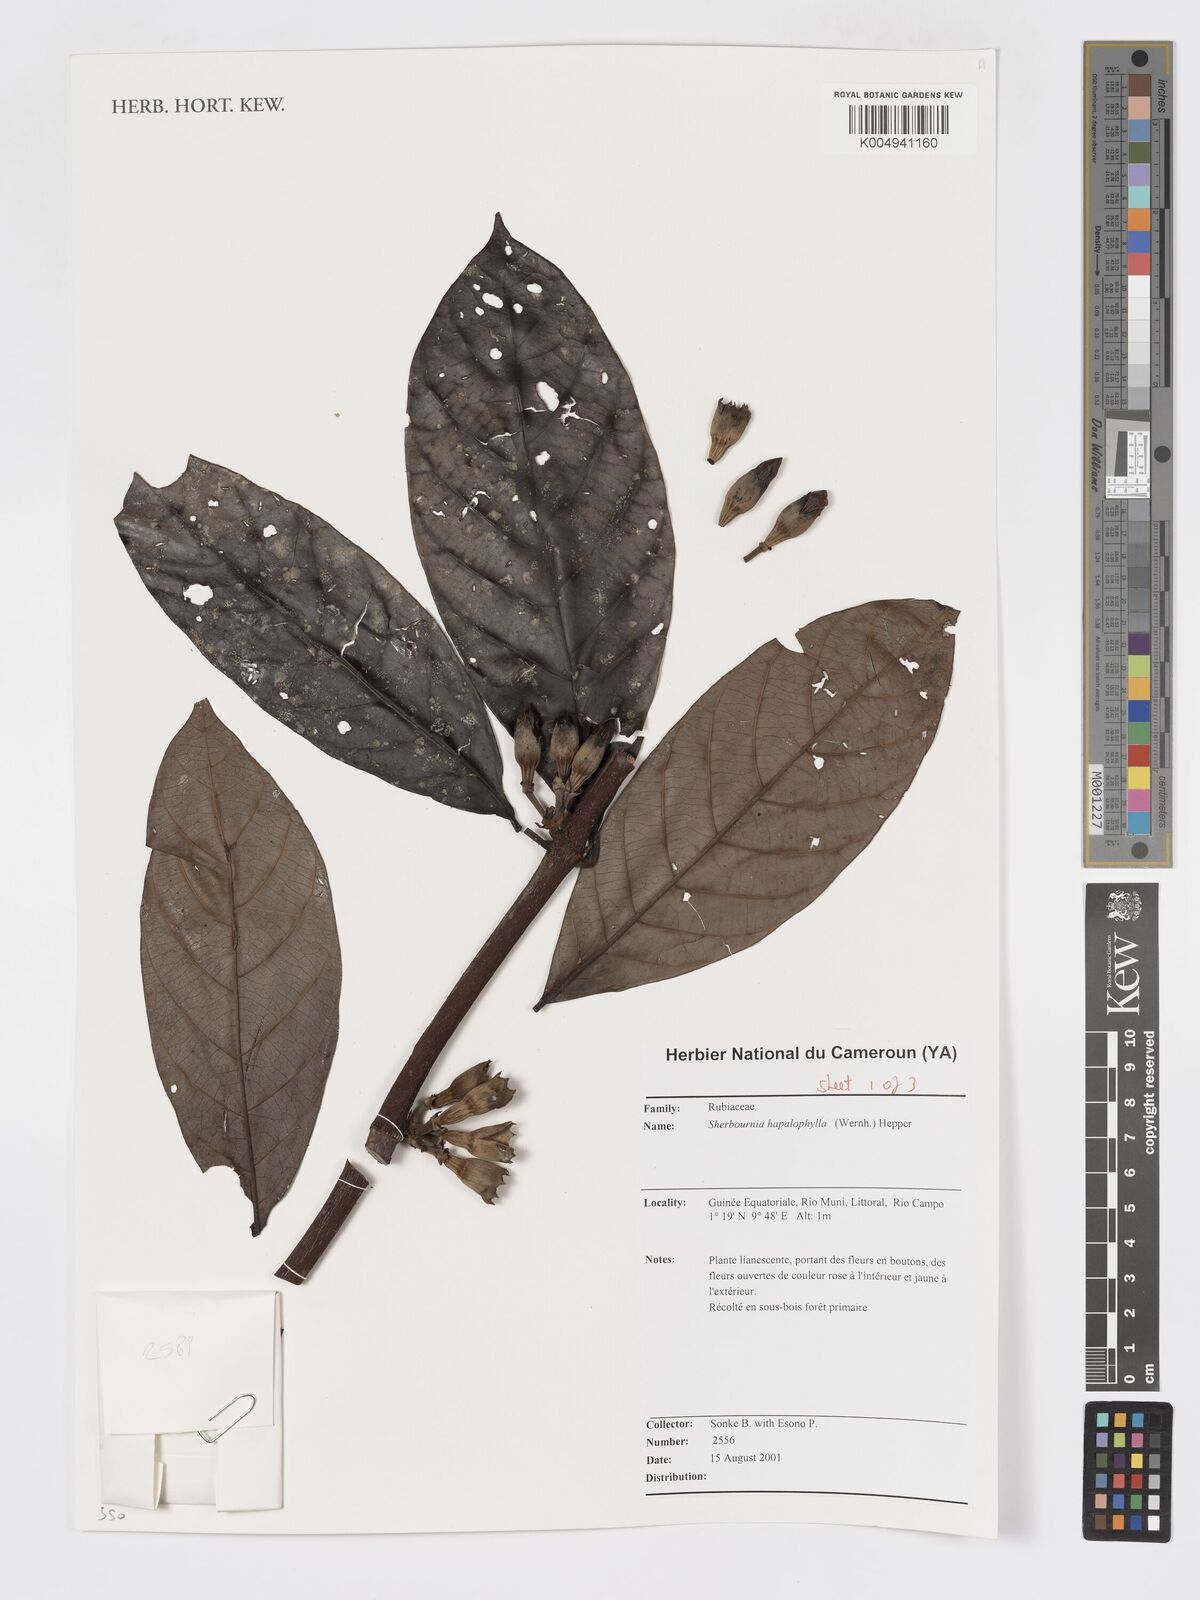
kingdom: Plantae
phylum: Tracheophyta
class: Magnoliopsida
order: Gentianales
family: Rubiaceae
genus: Sherbournia
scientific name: Sherbournia hapalophylla
